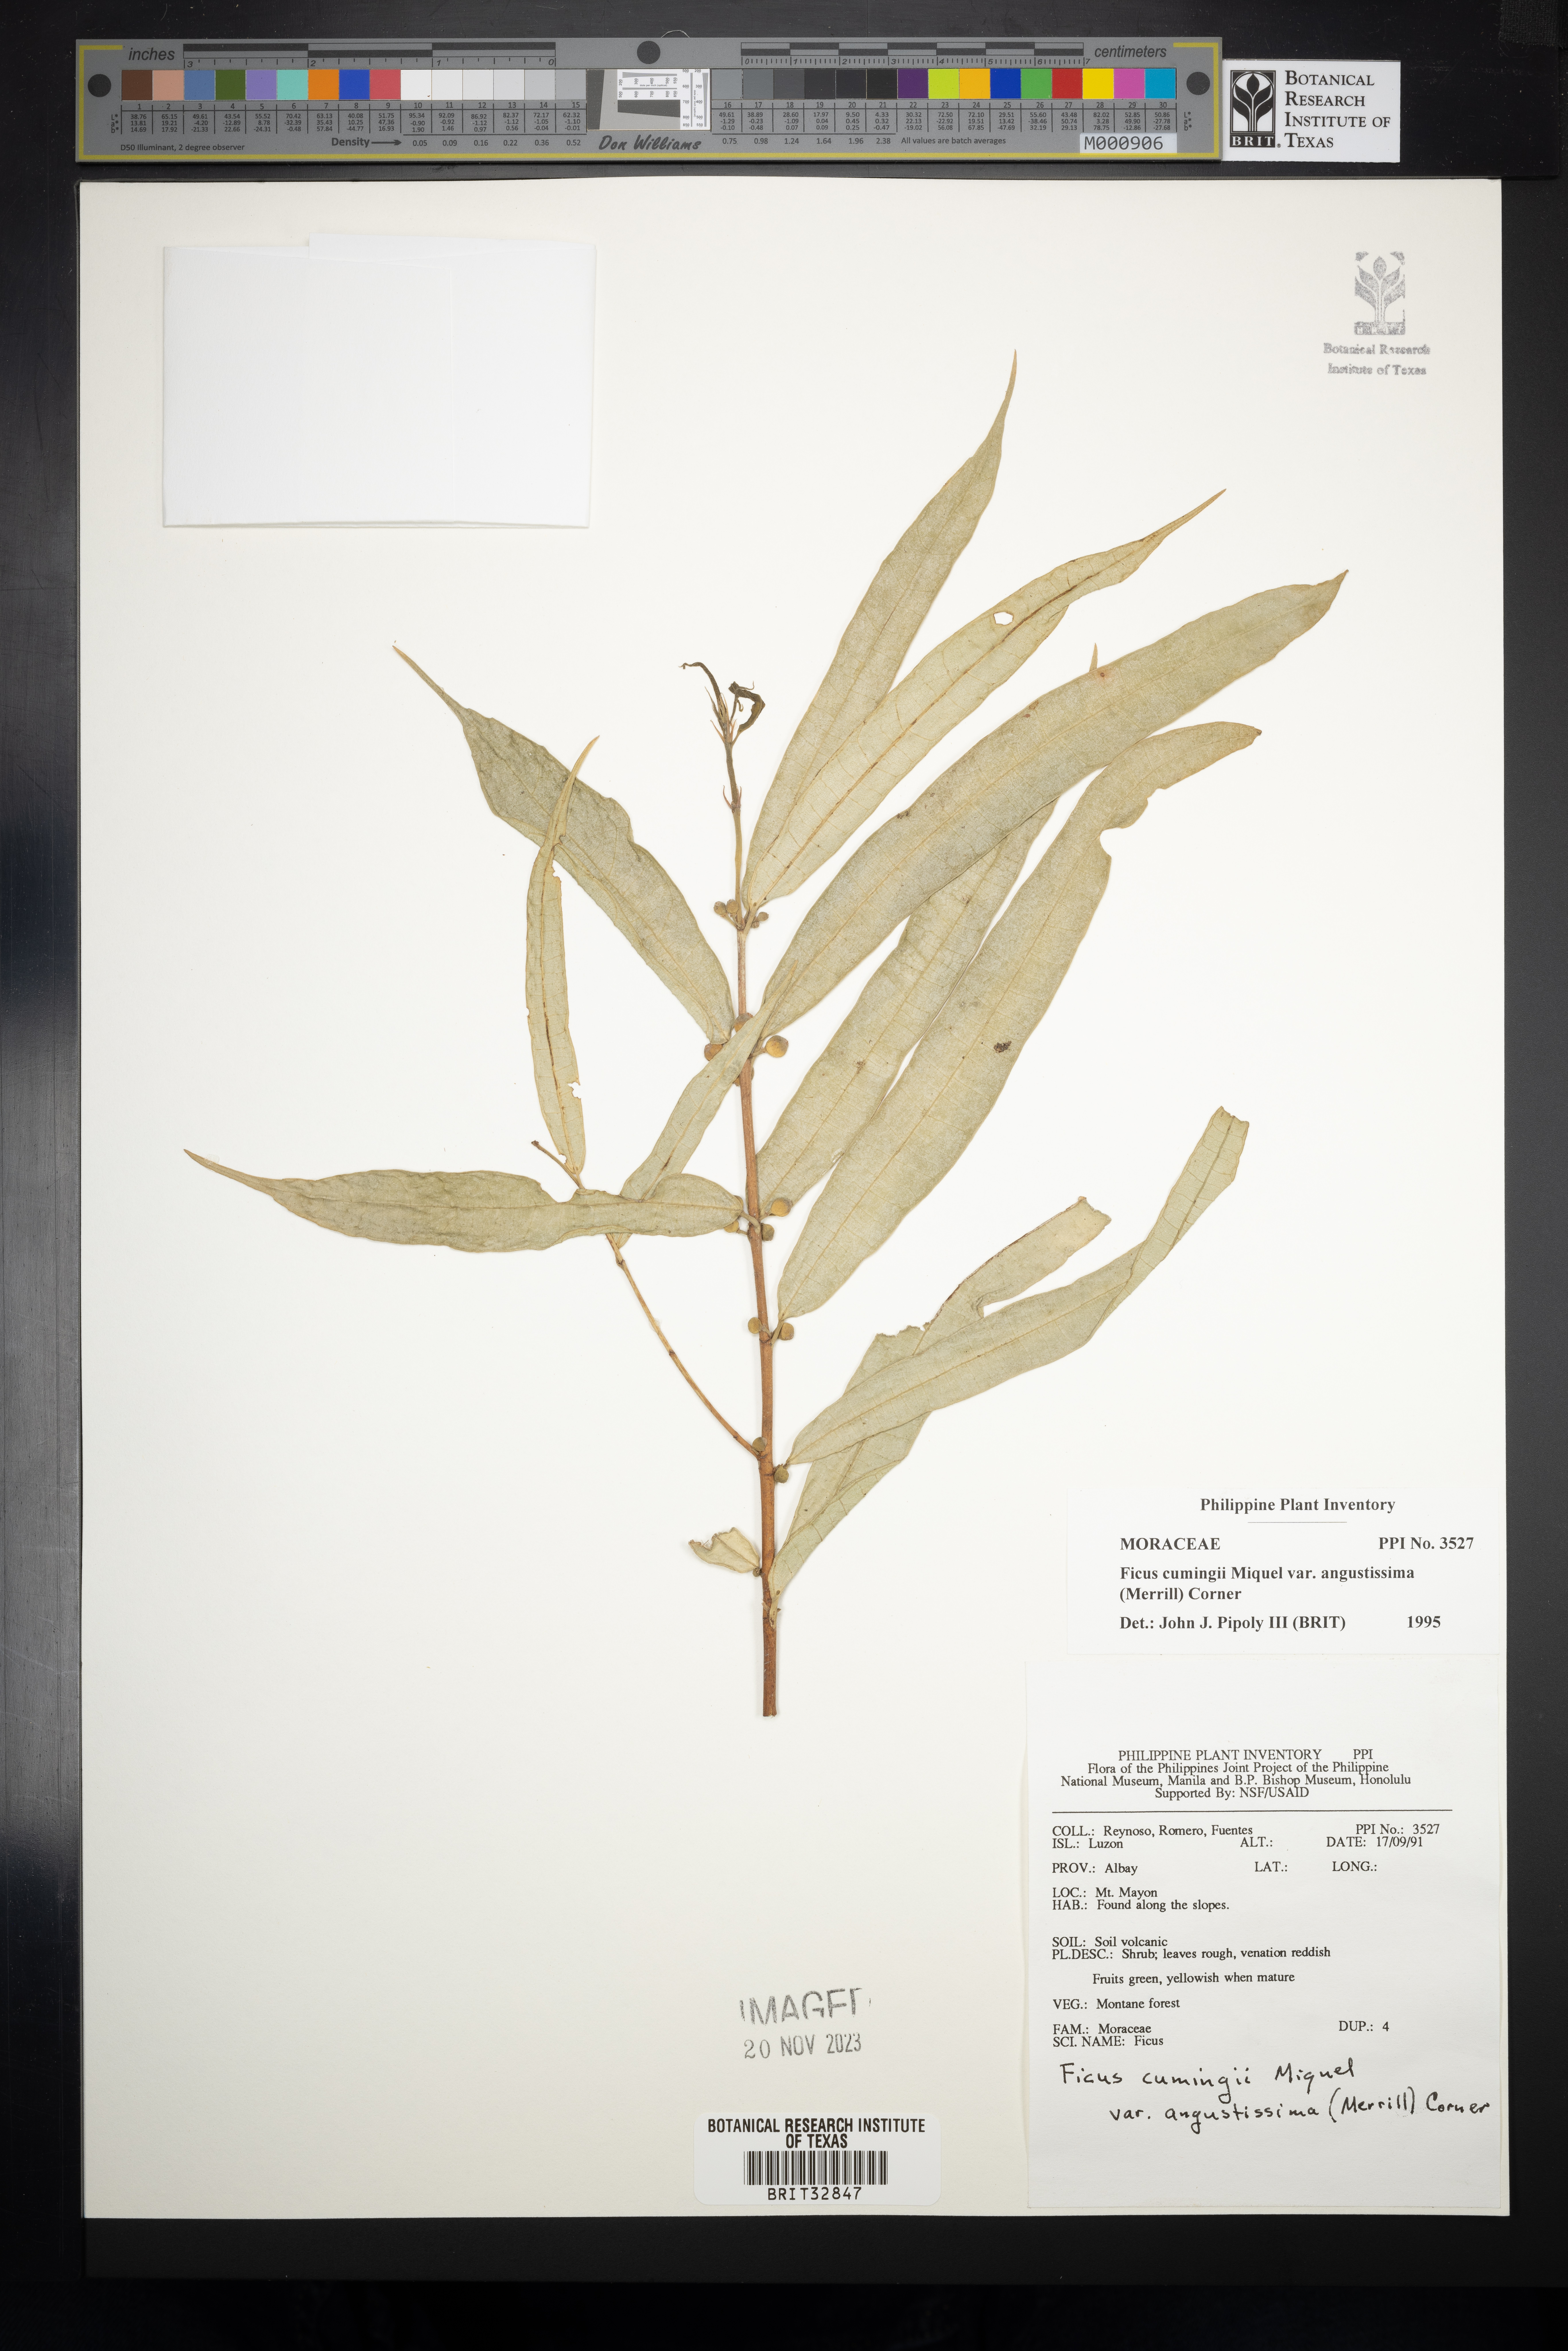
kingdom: Plantae
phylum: Tracheophyta
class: Magnoliopsida
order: Rosales
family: Moraceae
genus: Ficus
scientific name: Ficus cumingii
